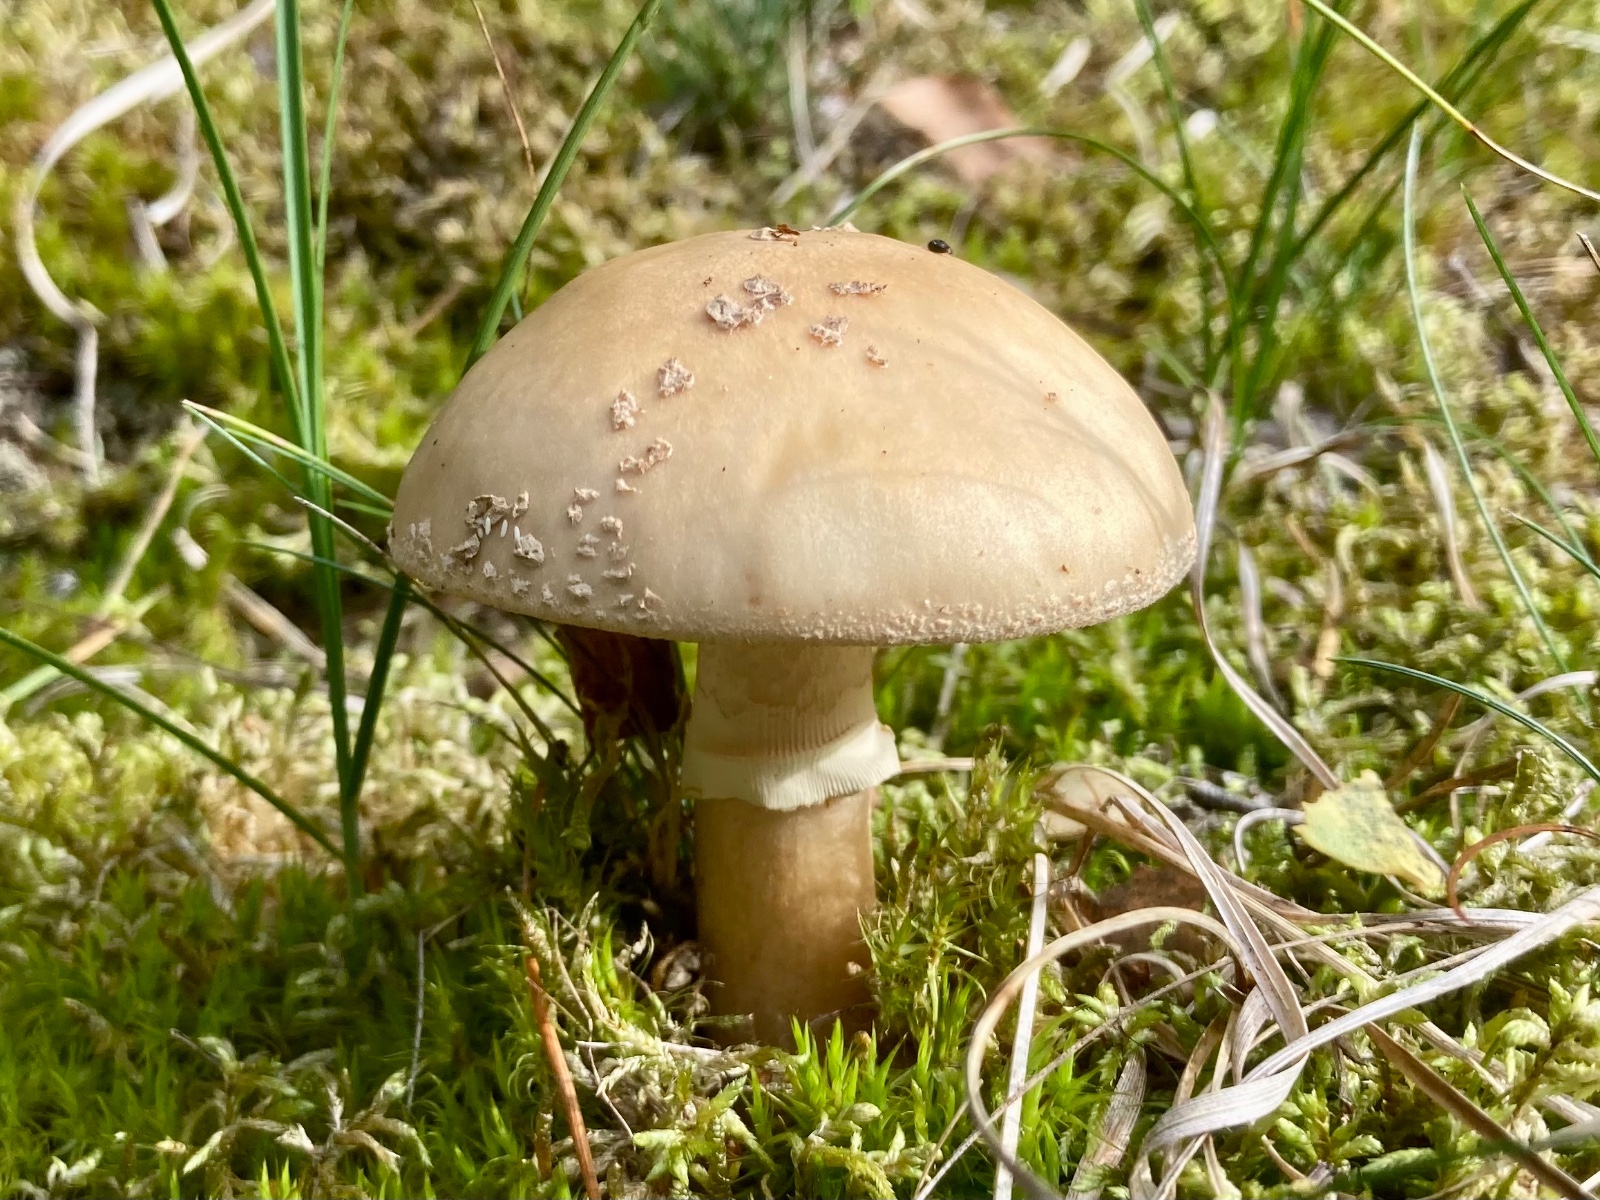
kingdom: Fungi
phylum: Basidiomycota
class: Agaricomycetes
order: Agaricales
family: Amanitaceae
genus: Amanita
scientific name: Amanita rubescens
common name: rødmende fluesvamp
